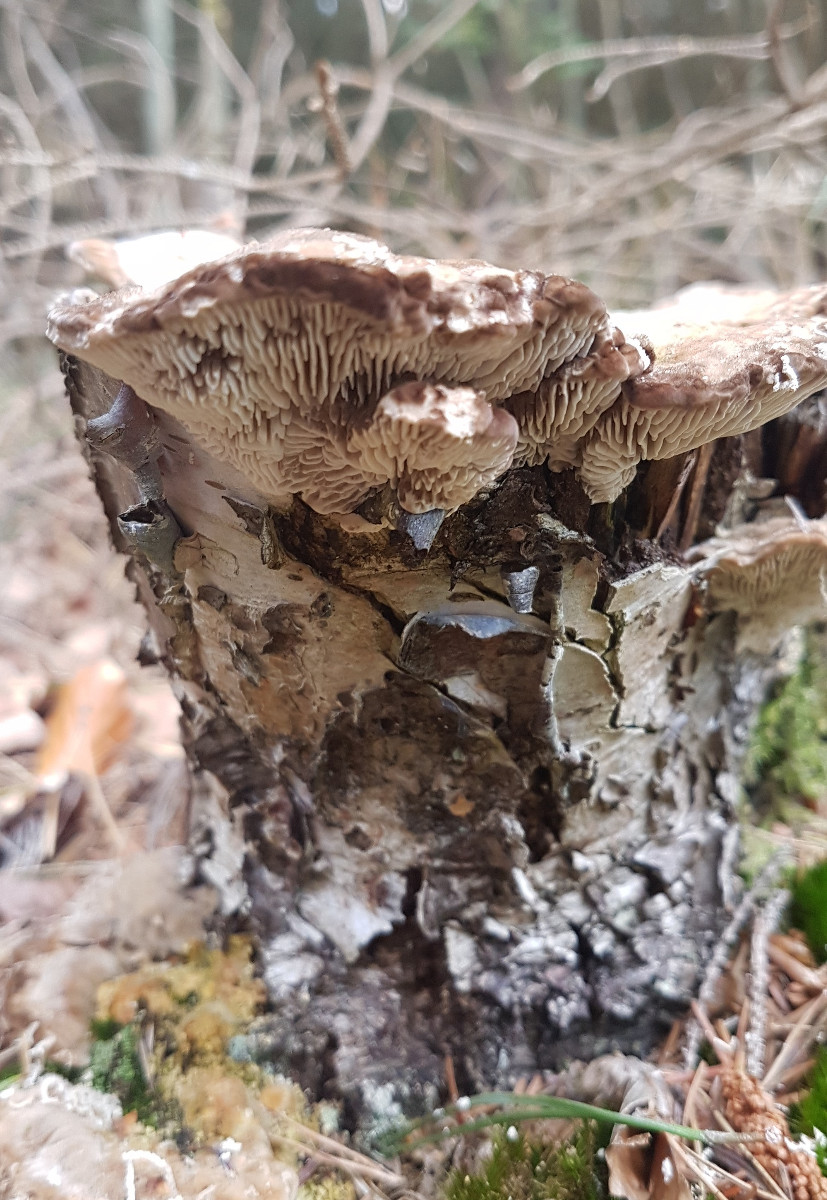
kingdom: Fungi
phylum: Basidiomycota
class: Agaricomycetes
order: Polyporales
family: Polyporaceae
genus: Lenzites
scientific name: Lenzites betulinus
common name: birke-læderporesvamp
